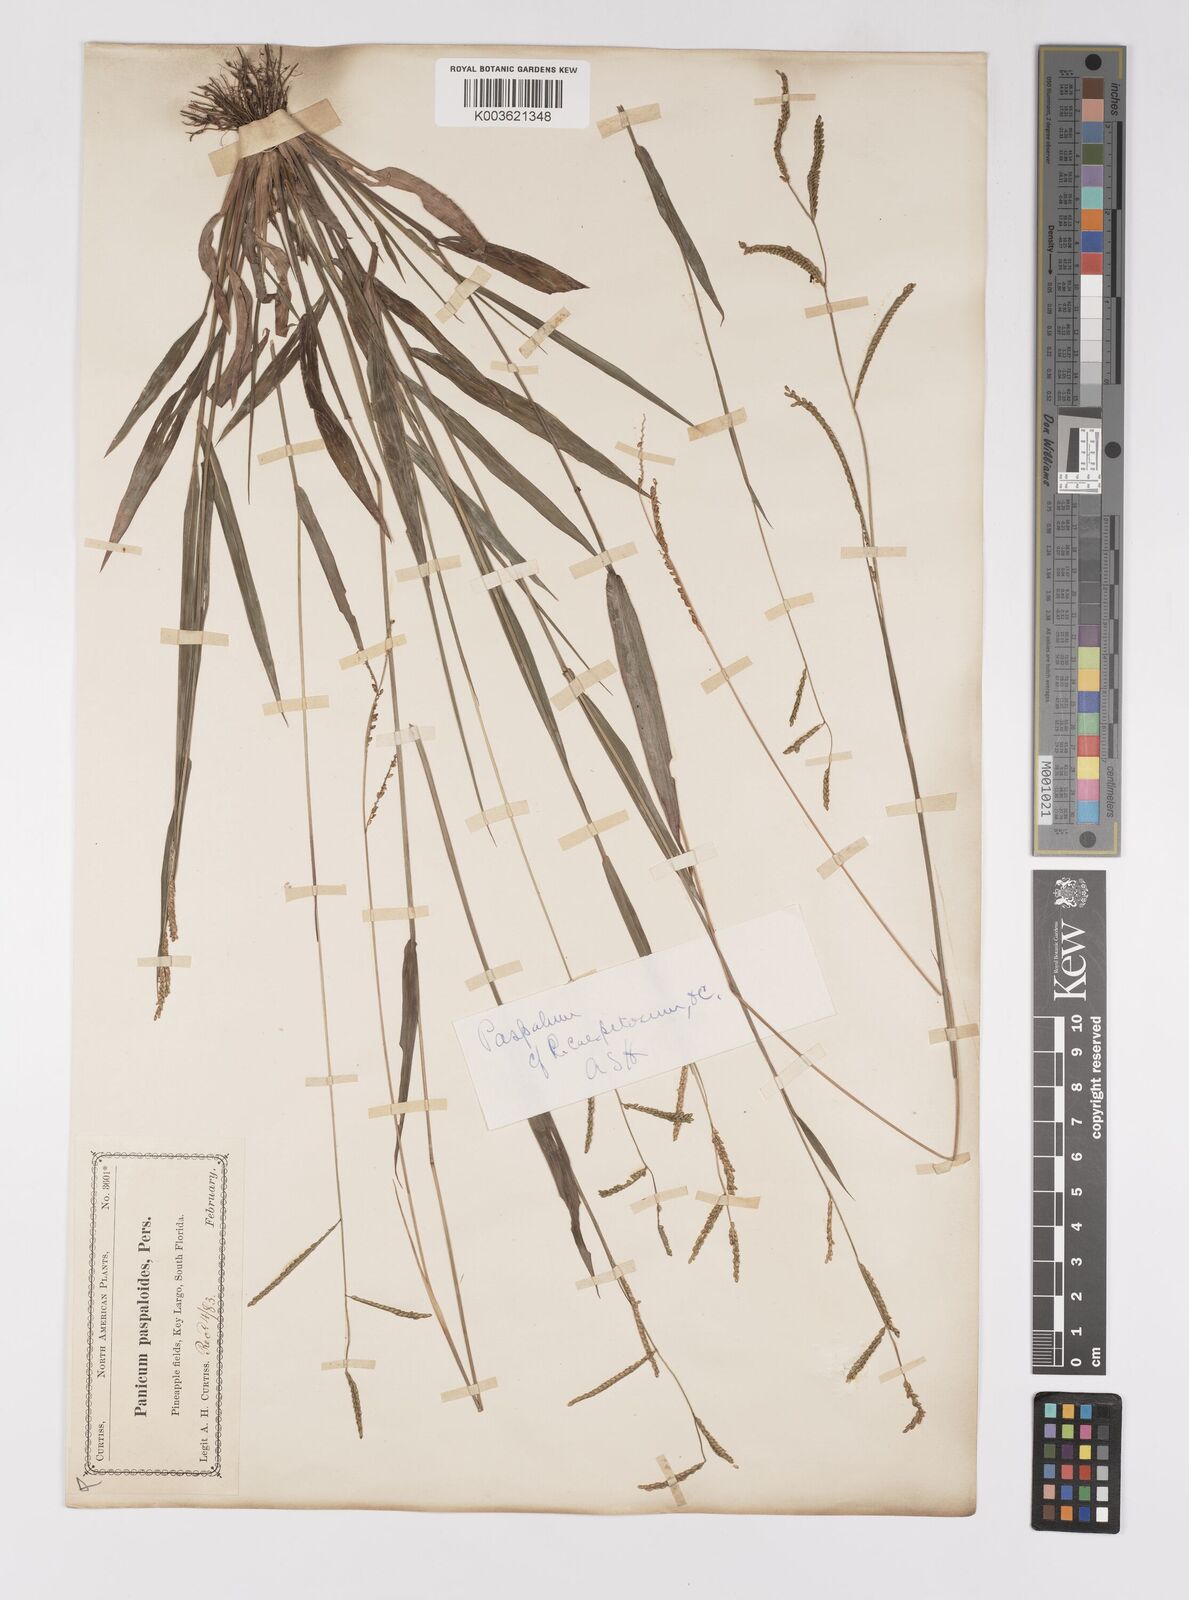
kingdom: Plantae
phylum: Tracheophyta
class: Liliopsida
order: Poales
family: Poaceae
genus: Paspalum
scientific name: Paspalum caespitosum
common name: Blue crowngrass
